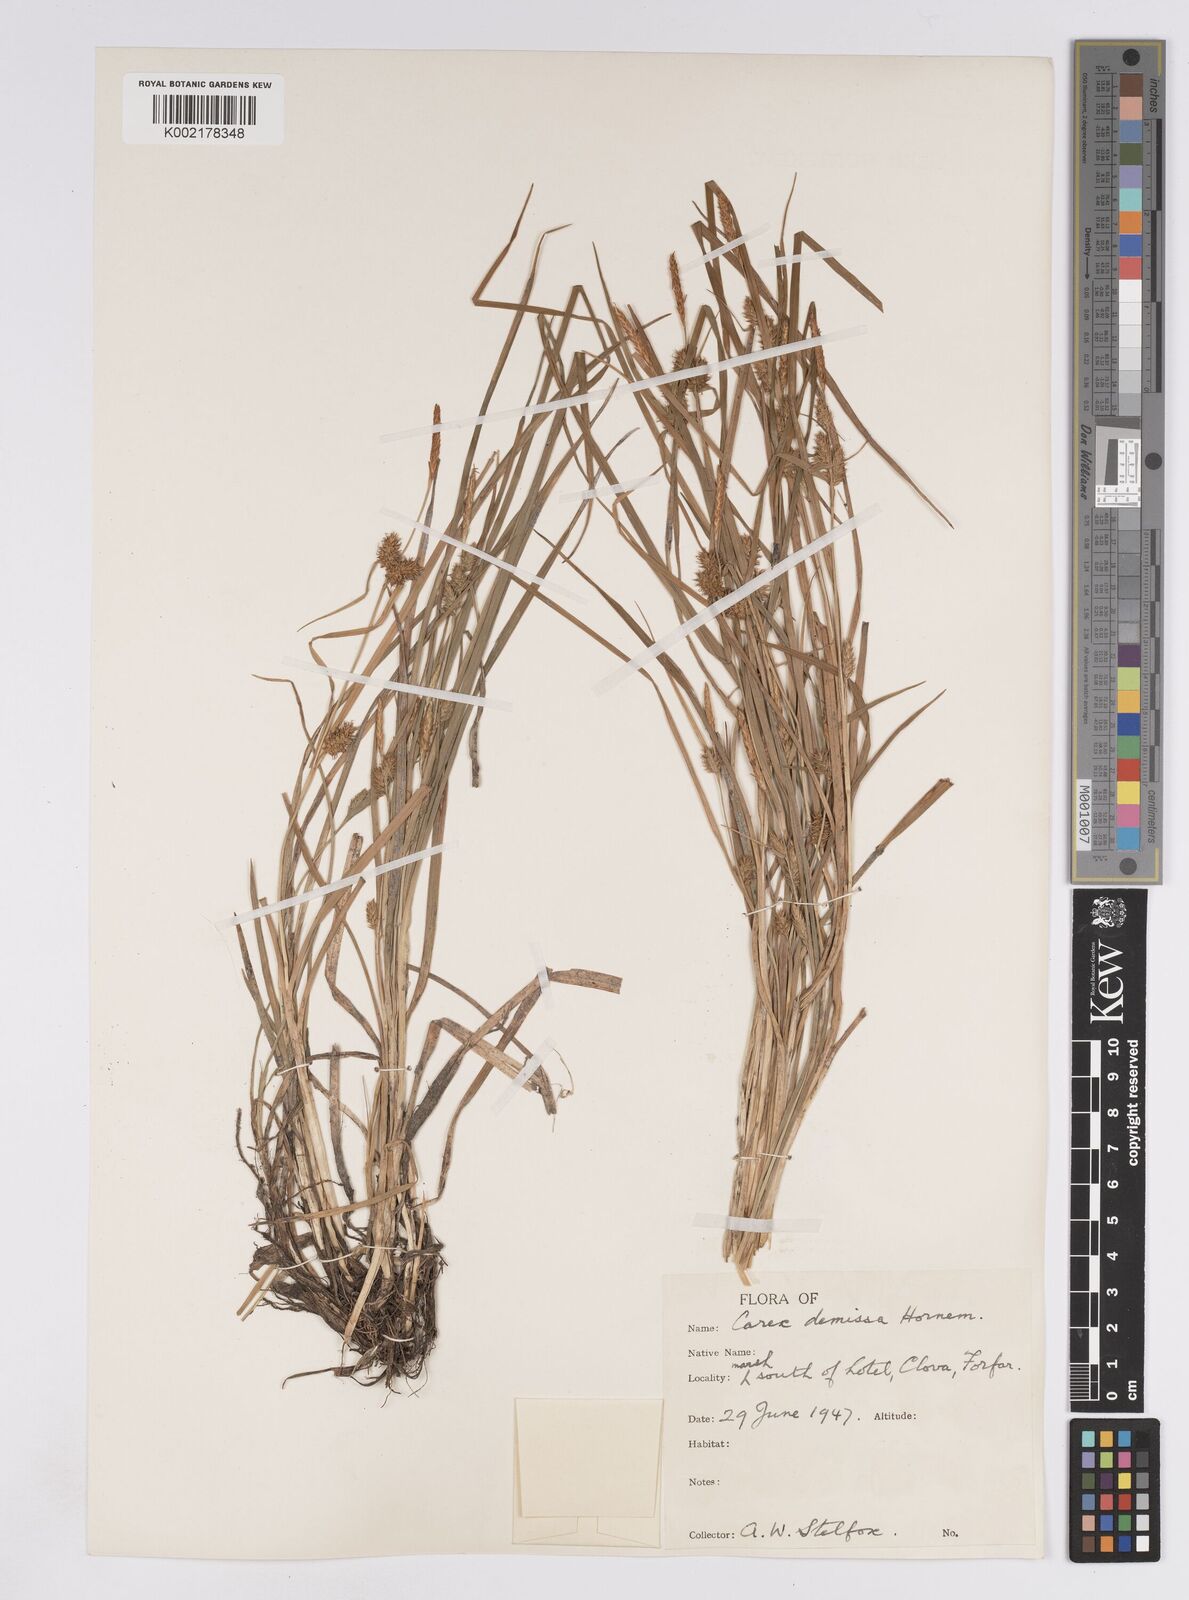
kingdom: Plantae
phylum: Tracheophyta
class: Liliopsida
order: Poales
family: Cyperaceae
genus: Carex
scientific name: Carex demissa
